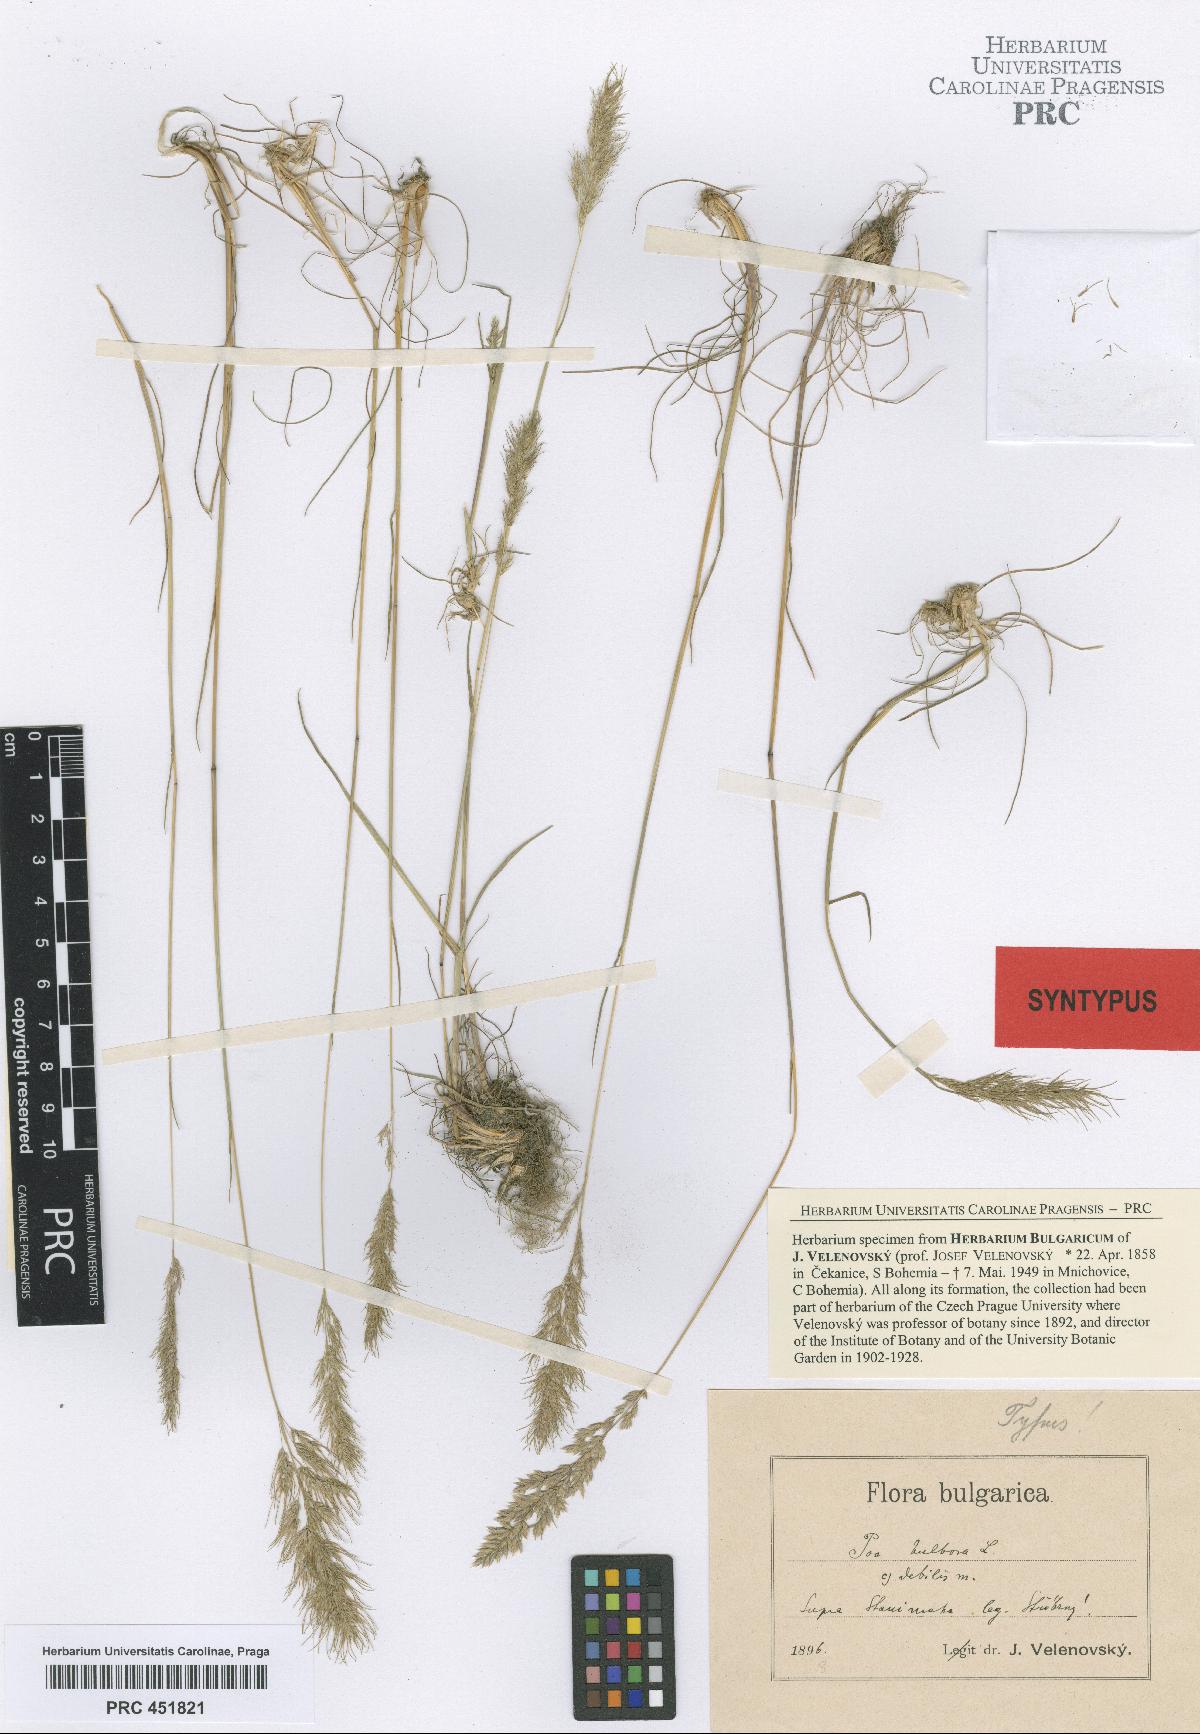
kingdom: Plantae
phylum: Tracheophyta
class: Liliopsida
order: Poales
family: Poaceae
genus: Poa
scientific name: Poa bulbosa
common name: Bulbous bluegrass
